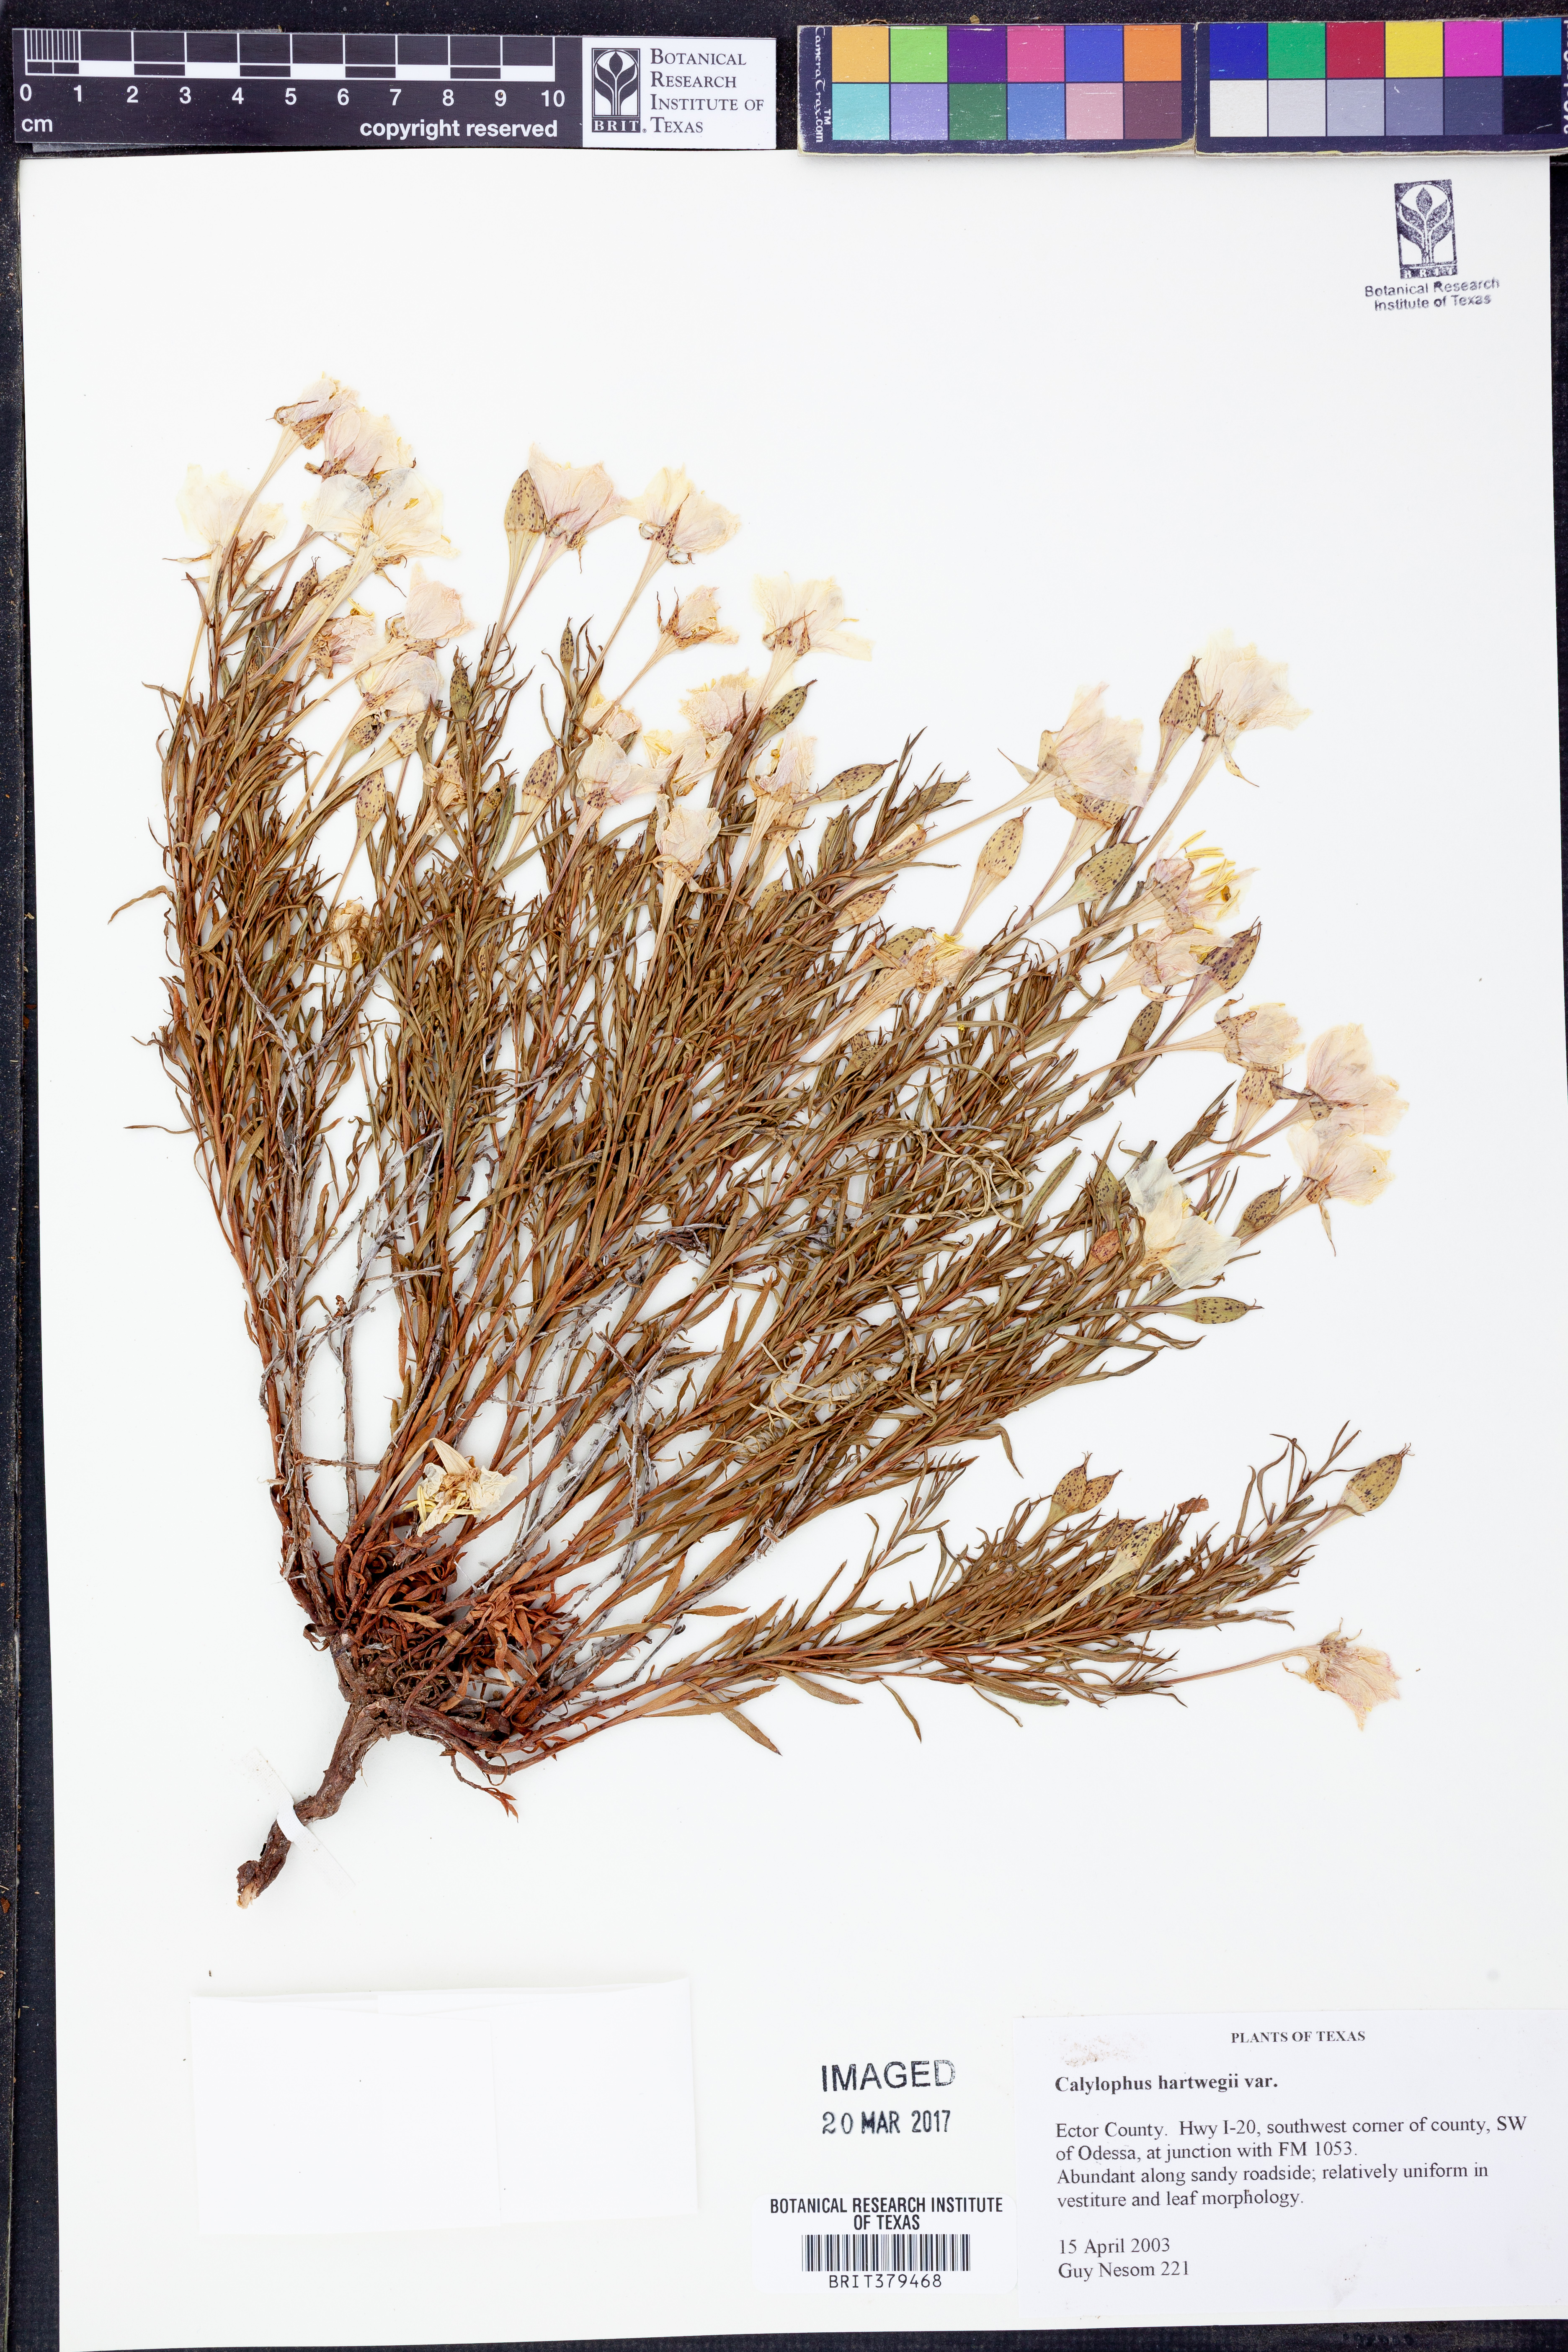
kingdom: Plantae
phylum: Tracheophyta
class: Magnoliopsida
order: Myrtales
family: Onagraceae
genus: Oenothera
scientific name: Oenothera hartwegii
